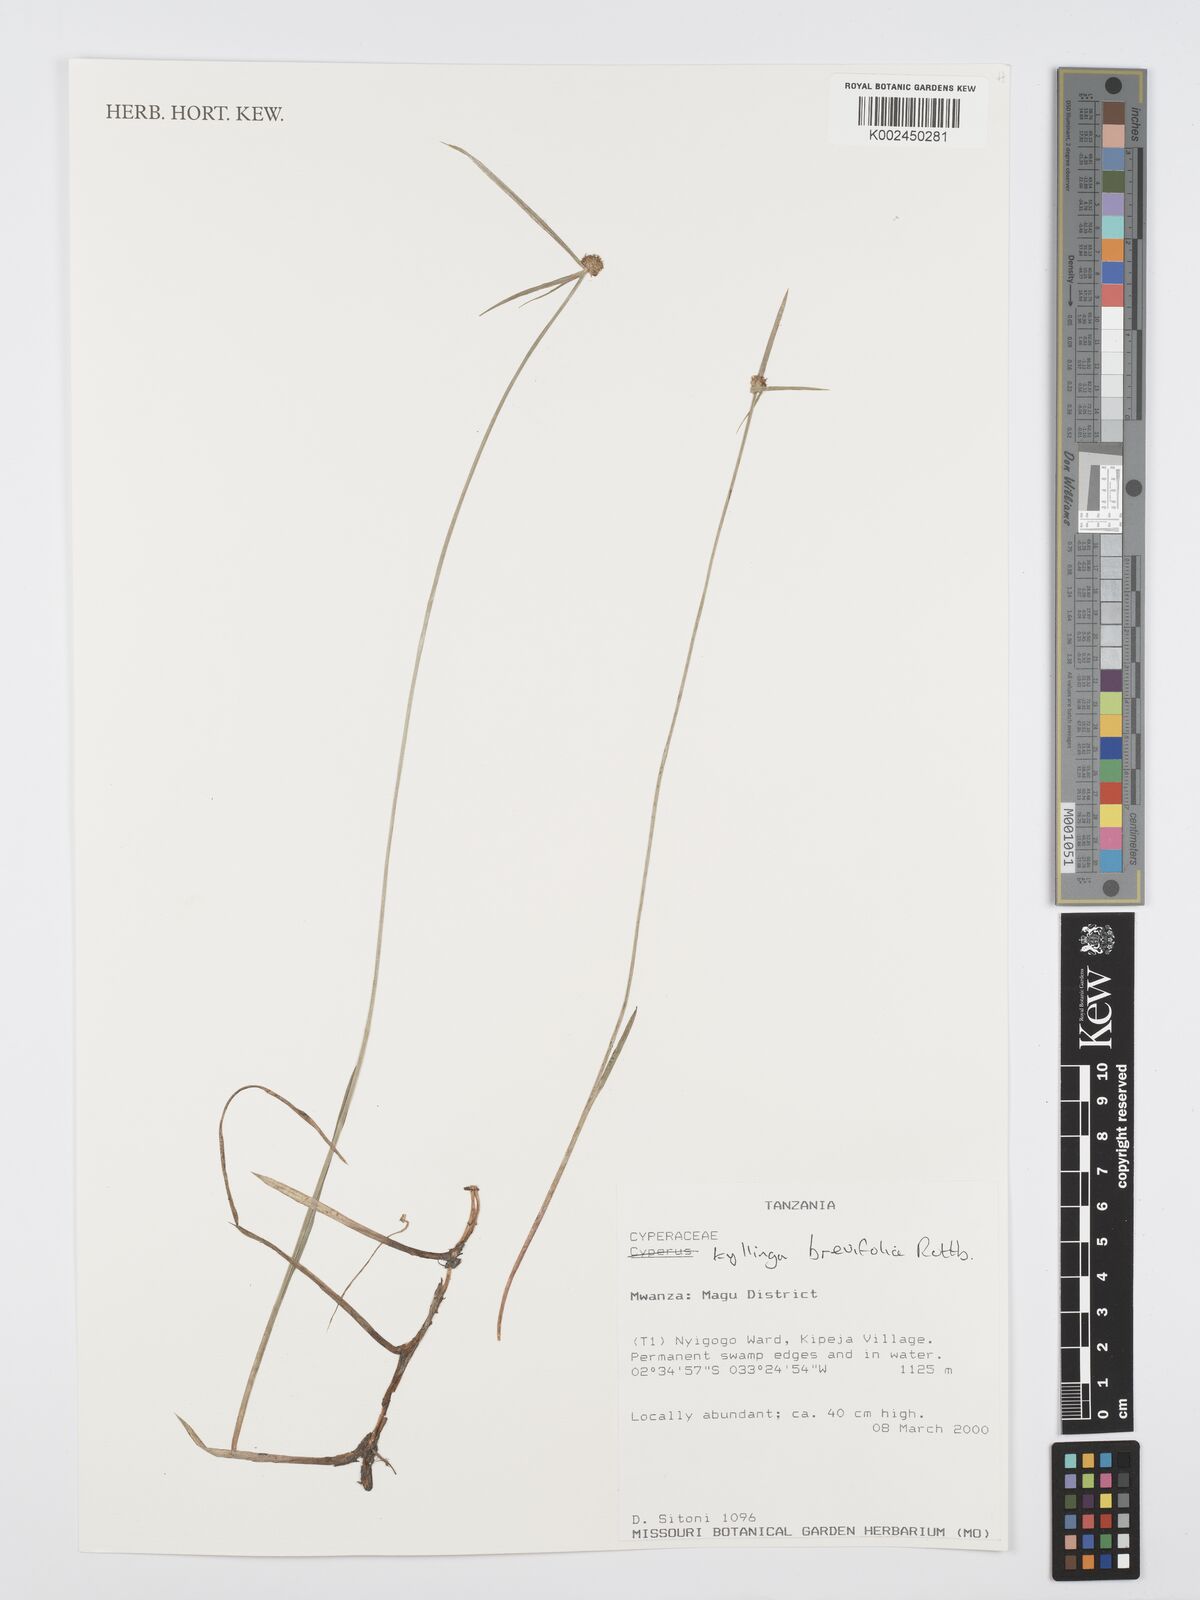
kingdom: Plantae
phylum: Tracheophyta
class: Liliopsida
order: Poales
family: Cyperaceae
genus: Cyperus
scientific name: Cyperus
